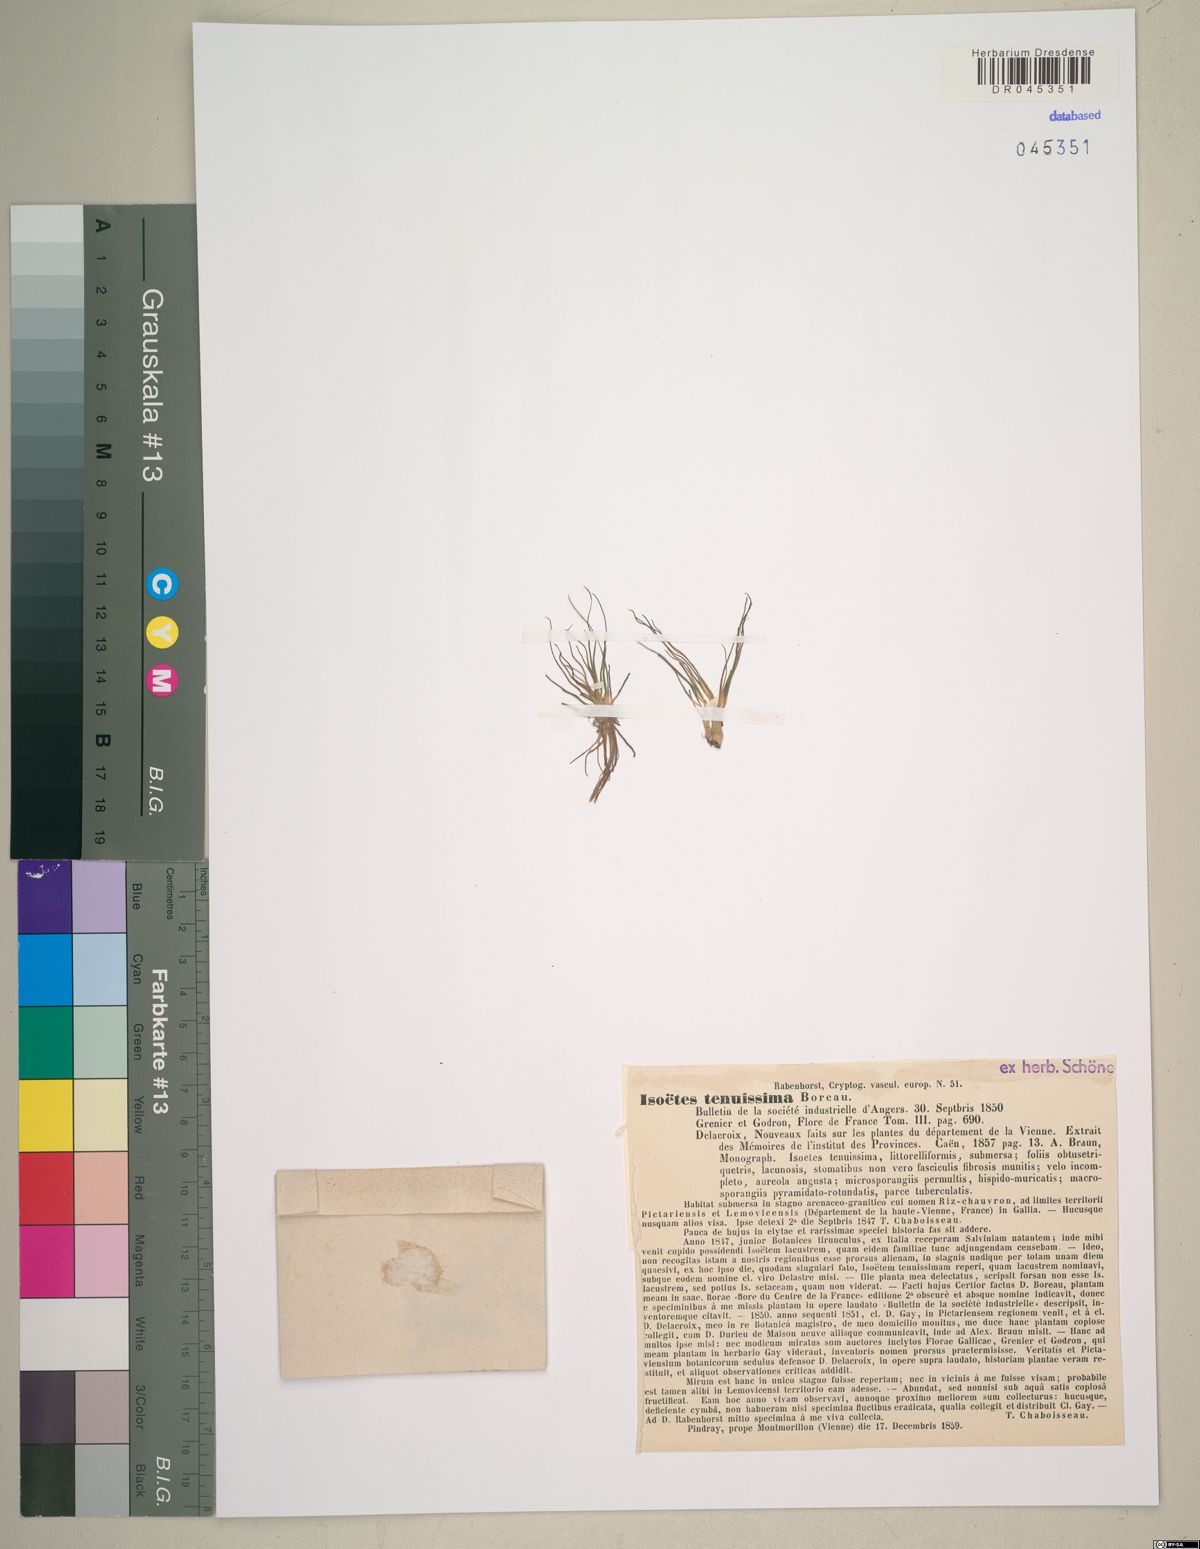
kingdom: Plantae
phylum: Tracheophyta
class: Lycopodiopsida
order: Isoetales
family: Isoetaceae
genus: Isoetes
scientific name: Isoetes longissima
